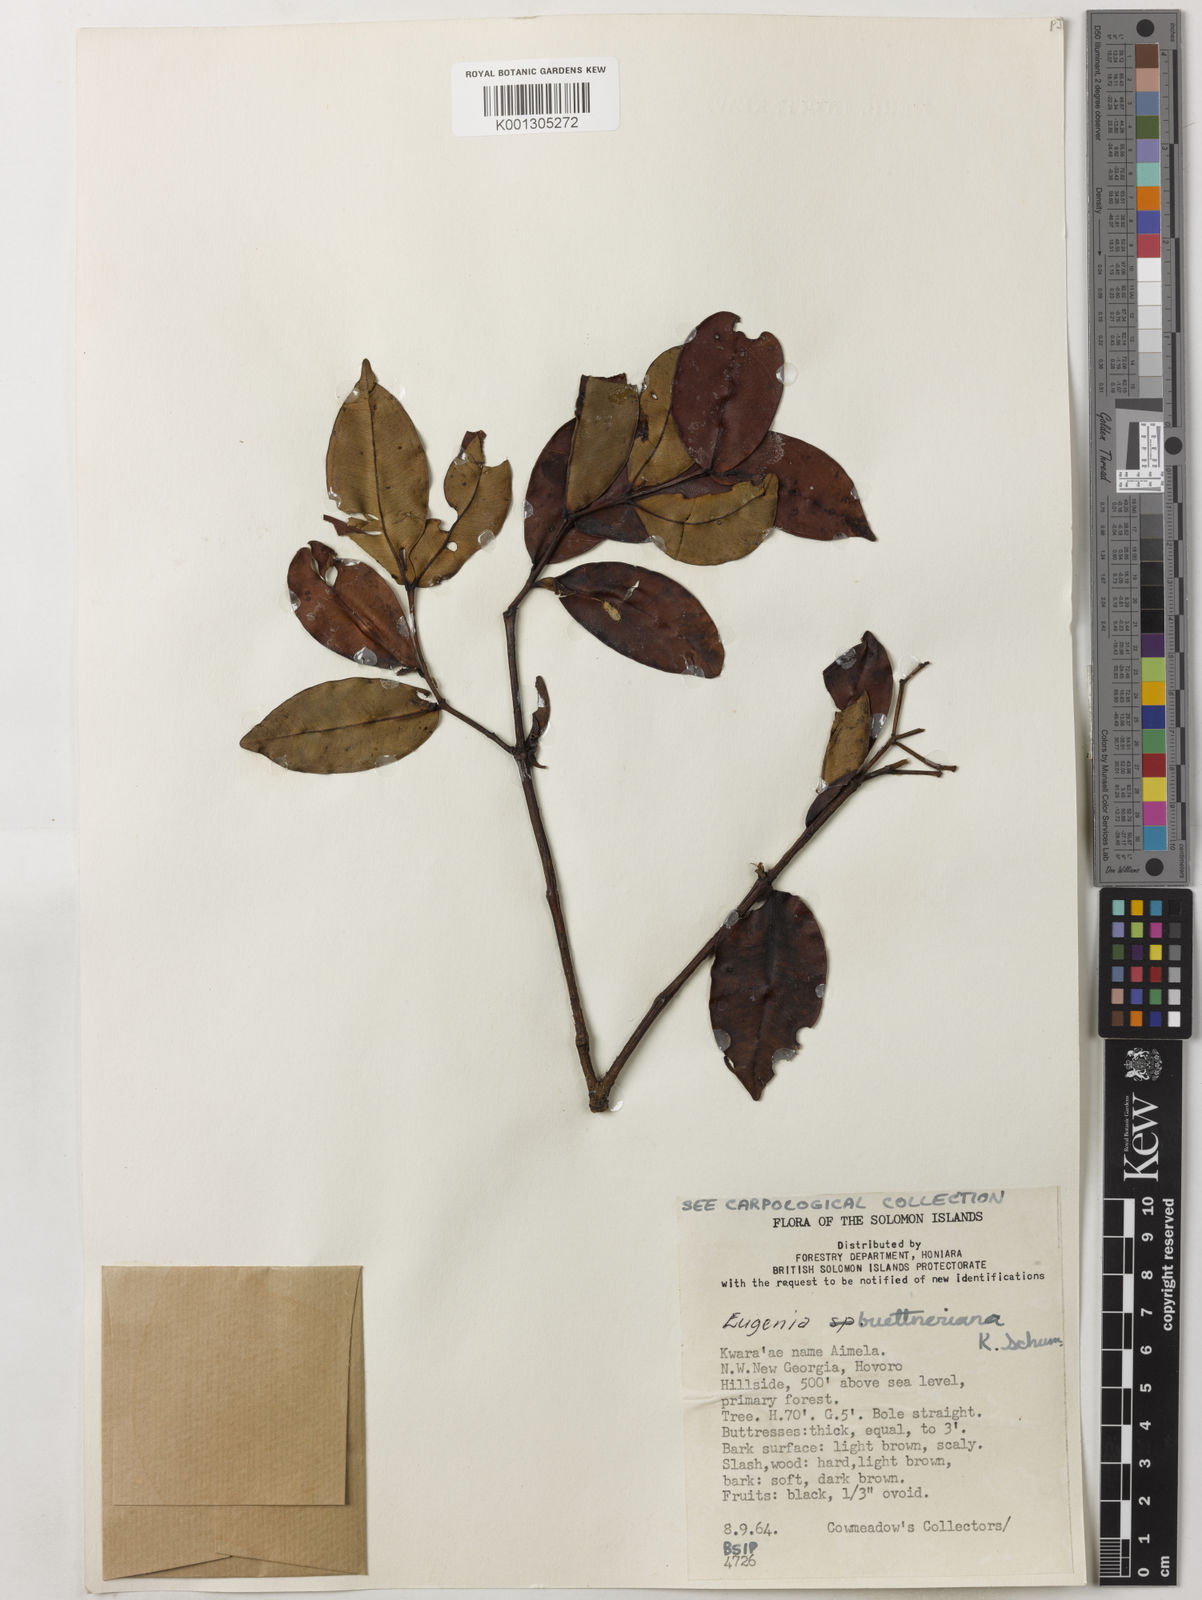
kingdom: Plantae
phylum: Tracheophyta
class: Magnoliopsida
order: Myrtales
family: Myrtaceae
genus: Syzygium
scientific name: Syzygium buettnerianum
